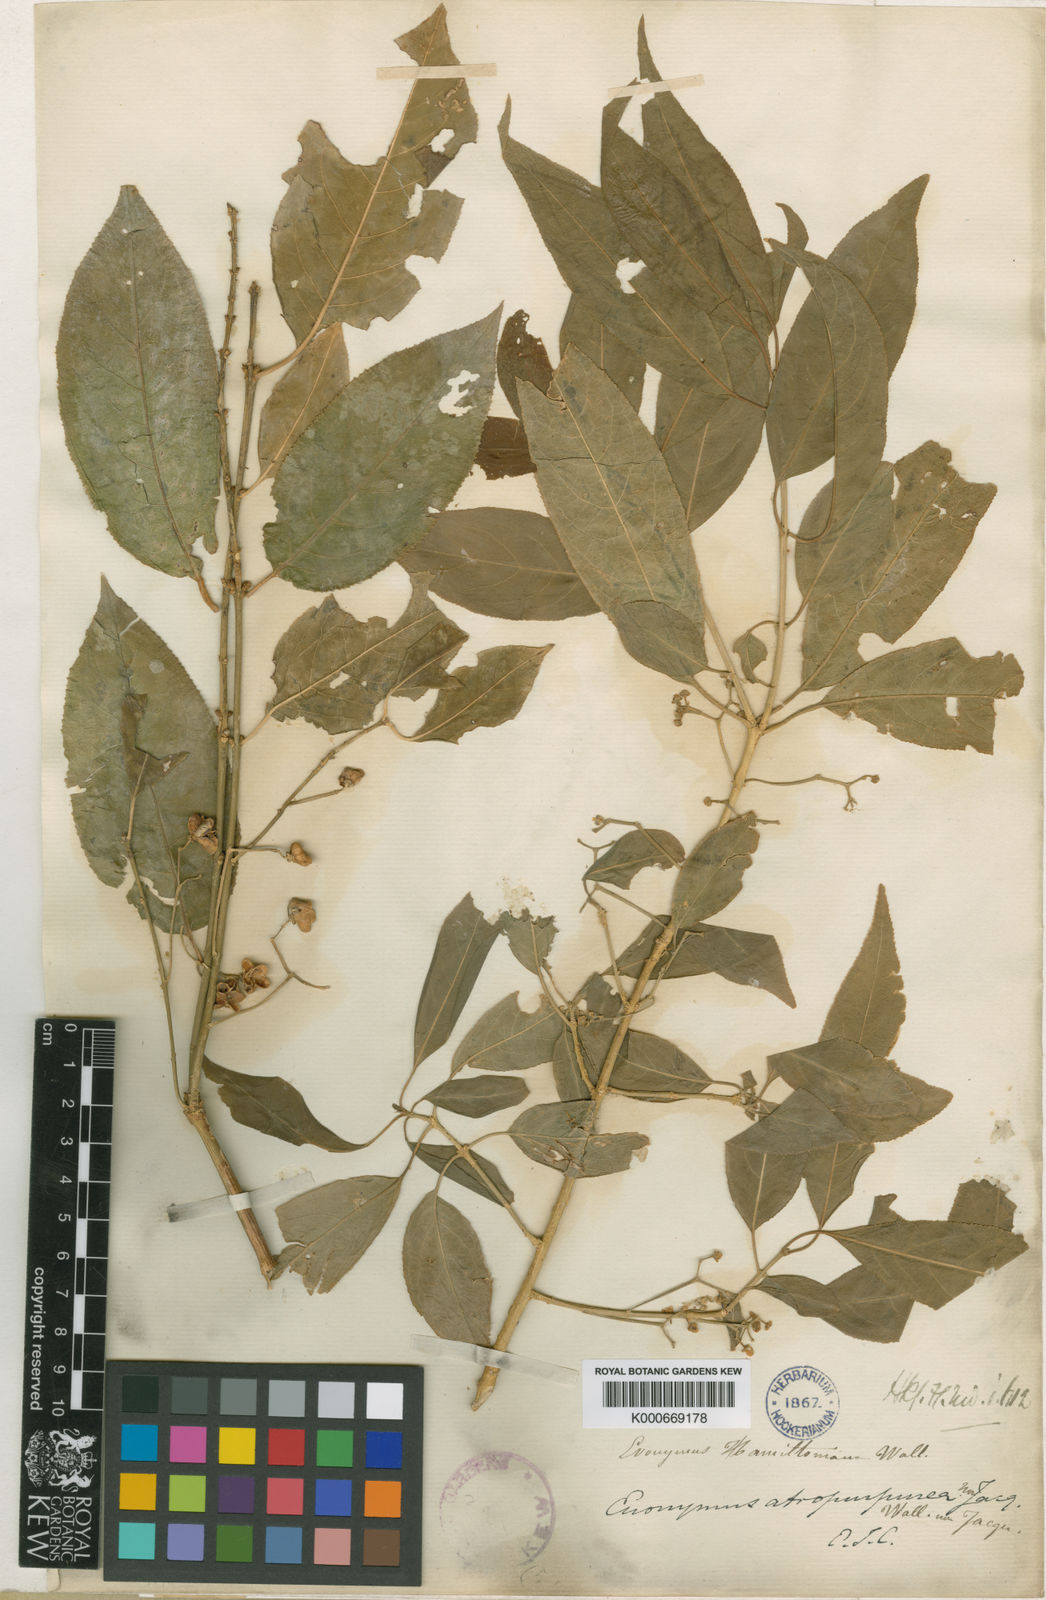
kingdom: Plantae
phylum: Tracheophyta
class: Magnoliopsida
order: Celastrales
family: Celastraceae
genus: Euonymus
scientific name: Euonymus hamiltonianus
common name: Hamilton's spindletree
